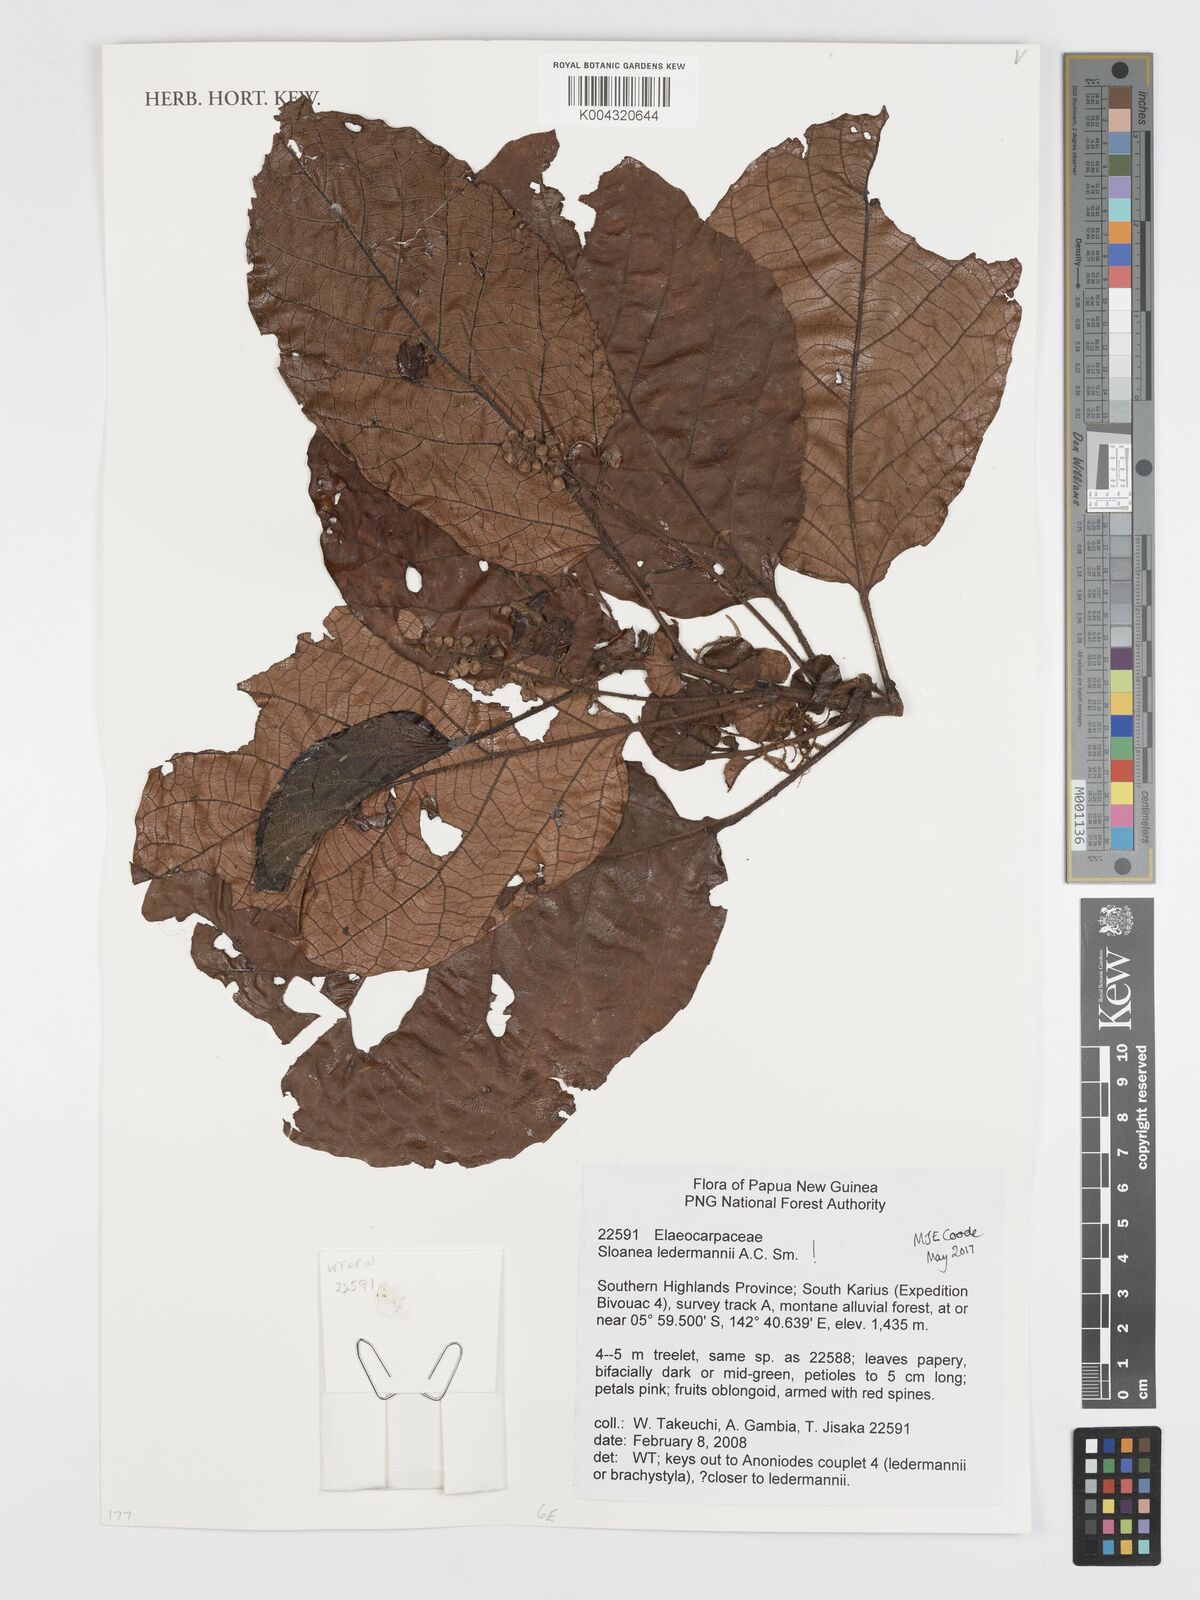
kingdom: Plantae
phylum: Tracheophyta
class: Magnoliopsida
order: Oxalidales
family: Elaeocarpaceae
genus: Sloanea
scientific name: Sloanea ledermannii
